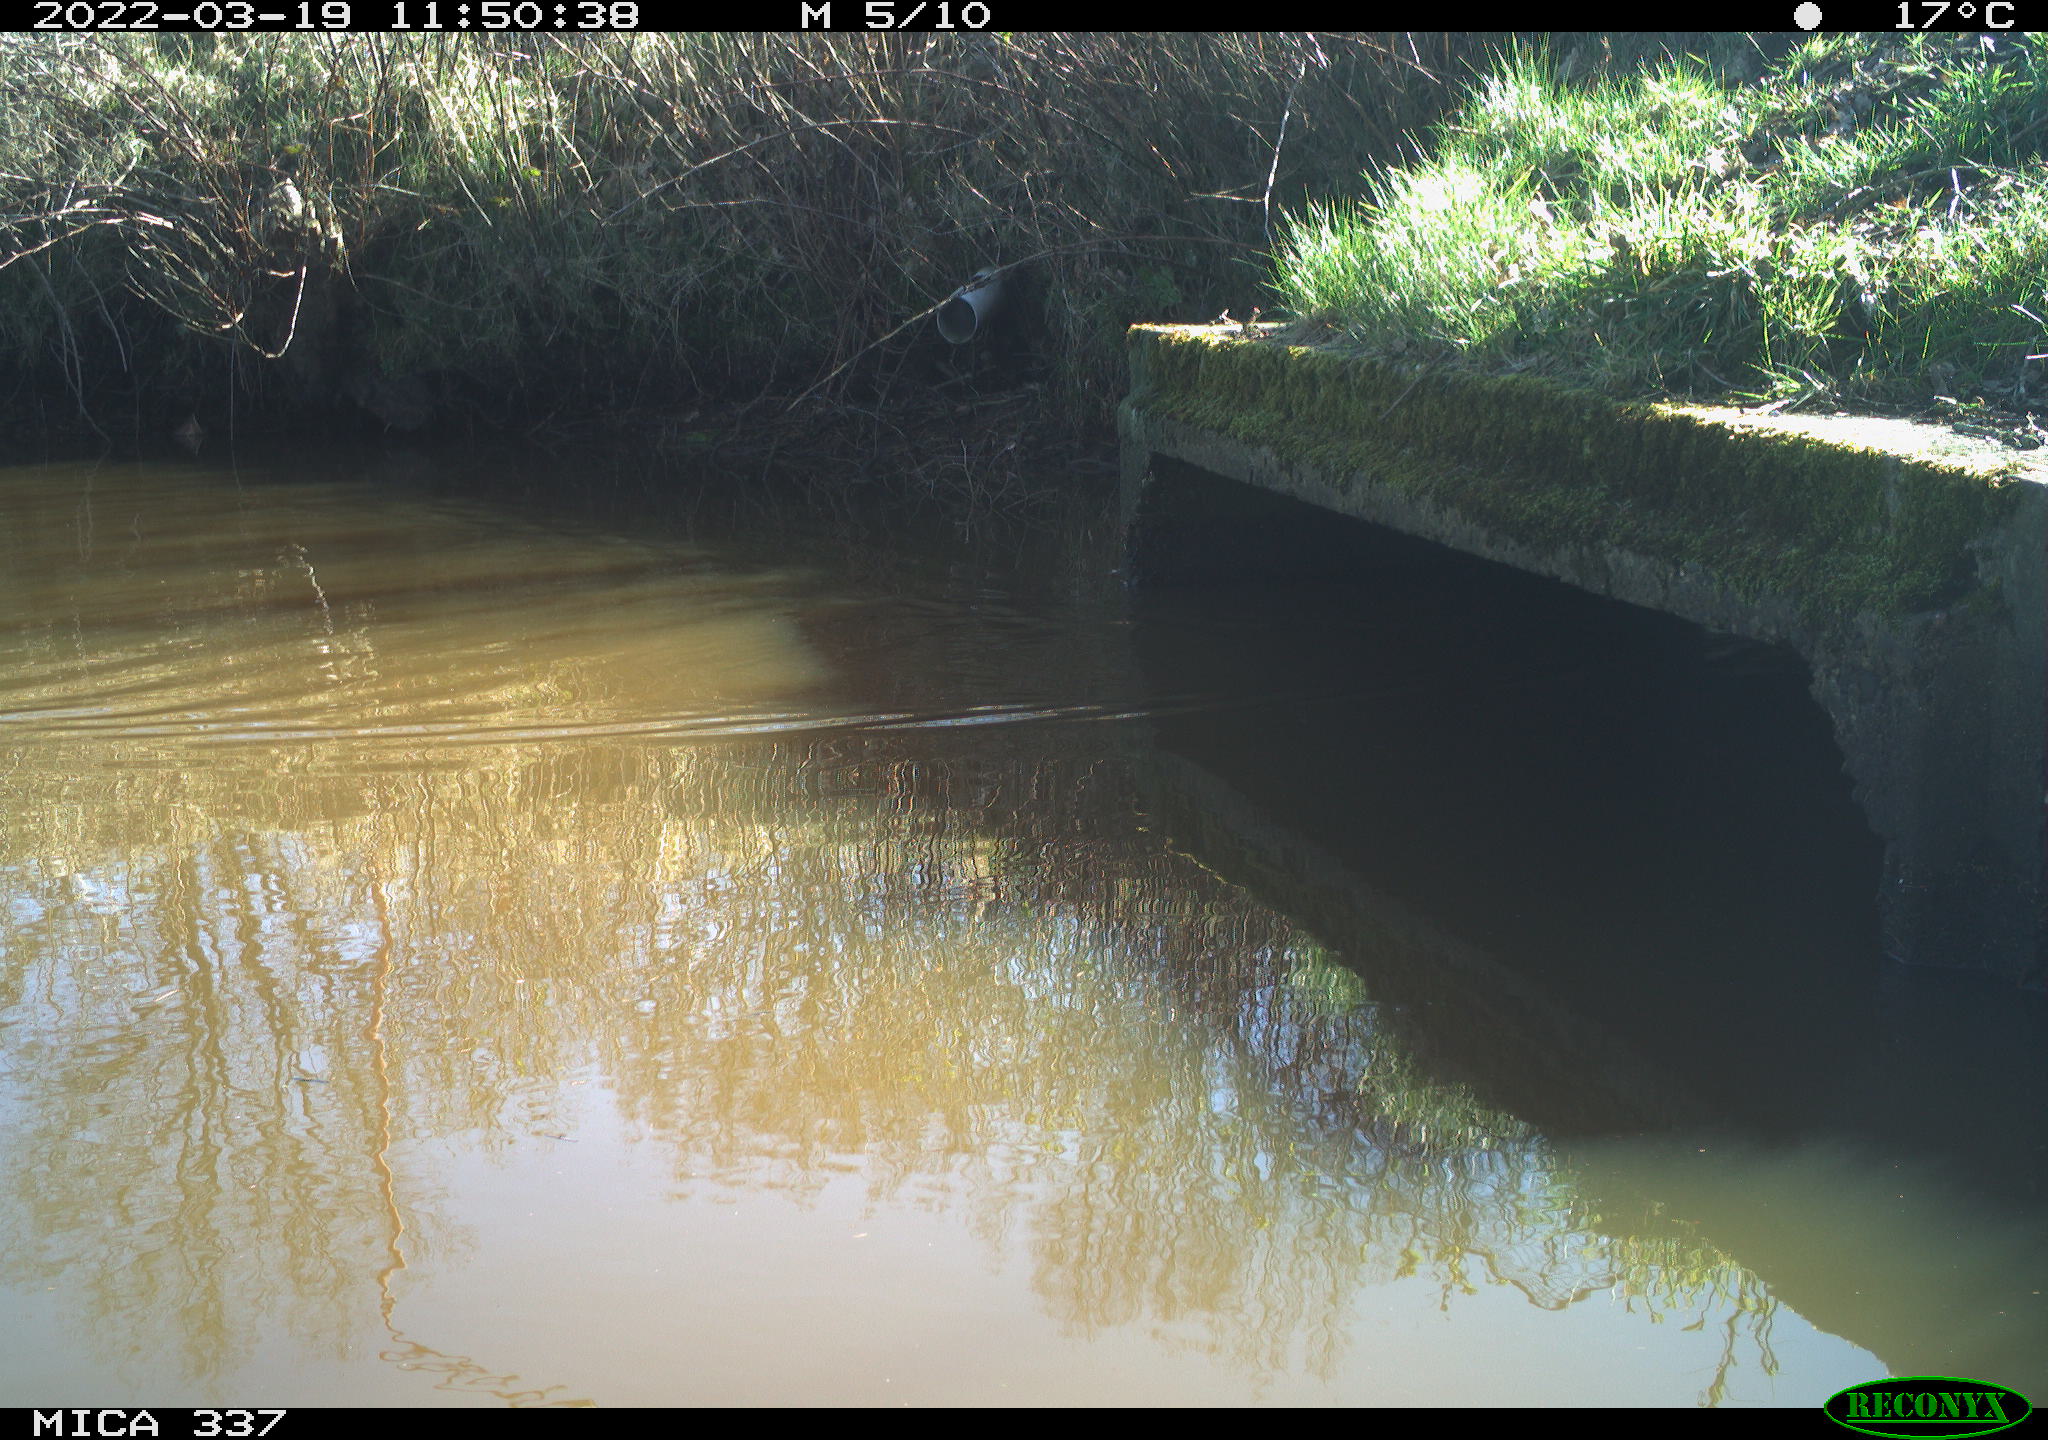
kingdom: Animalia
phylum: Chordata
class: Aves
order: Anseriformes
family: Anatidae
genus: Anas
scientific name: Anas platyrhynchos
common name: Mallard
